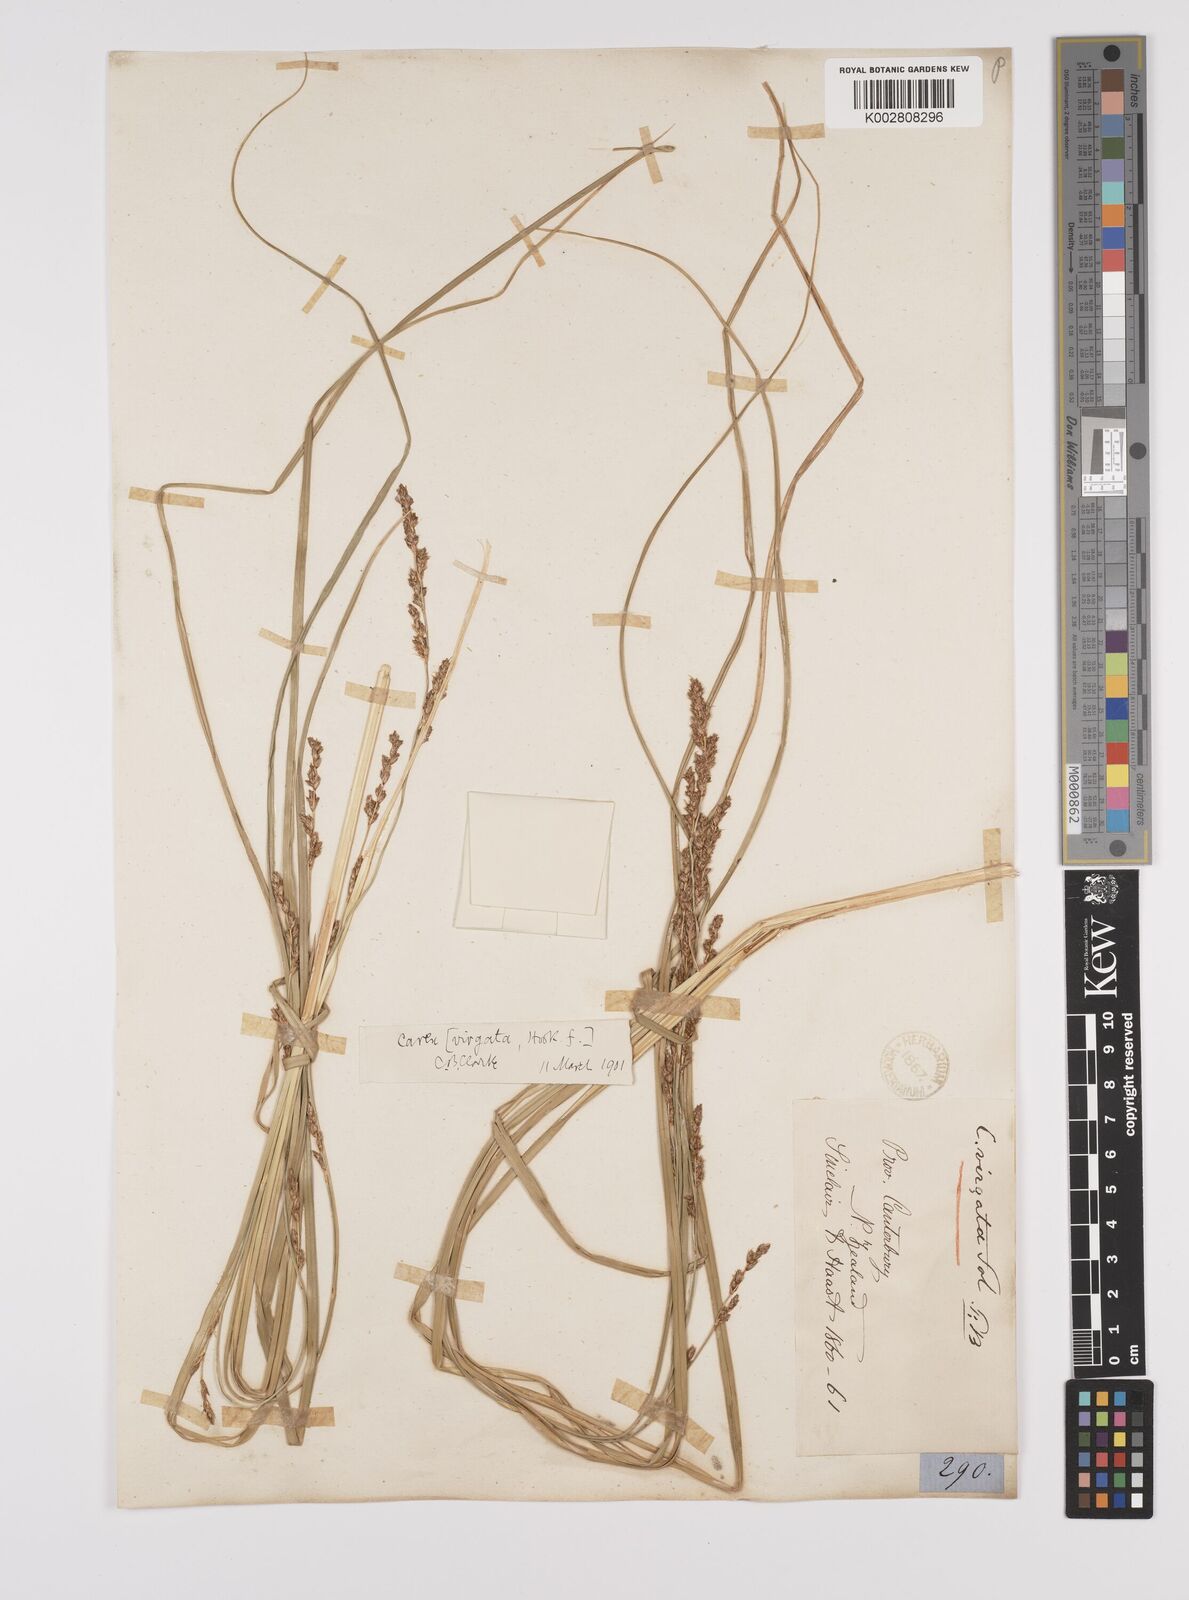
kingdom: Plantae
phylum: Tracheophyta
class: Liliopsida
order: Poales
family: Cyperaceae
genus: Carex
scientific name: Carex appressa
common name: Tussock sedge
